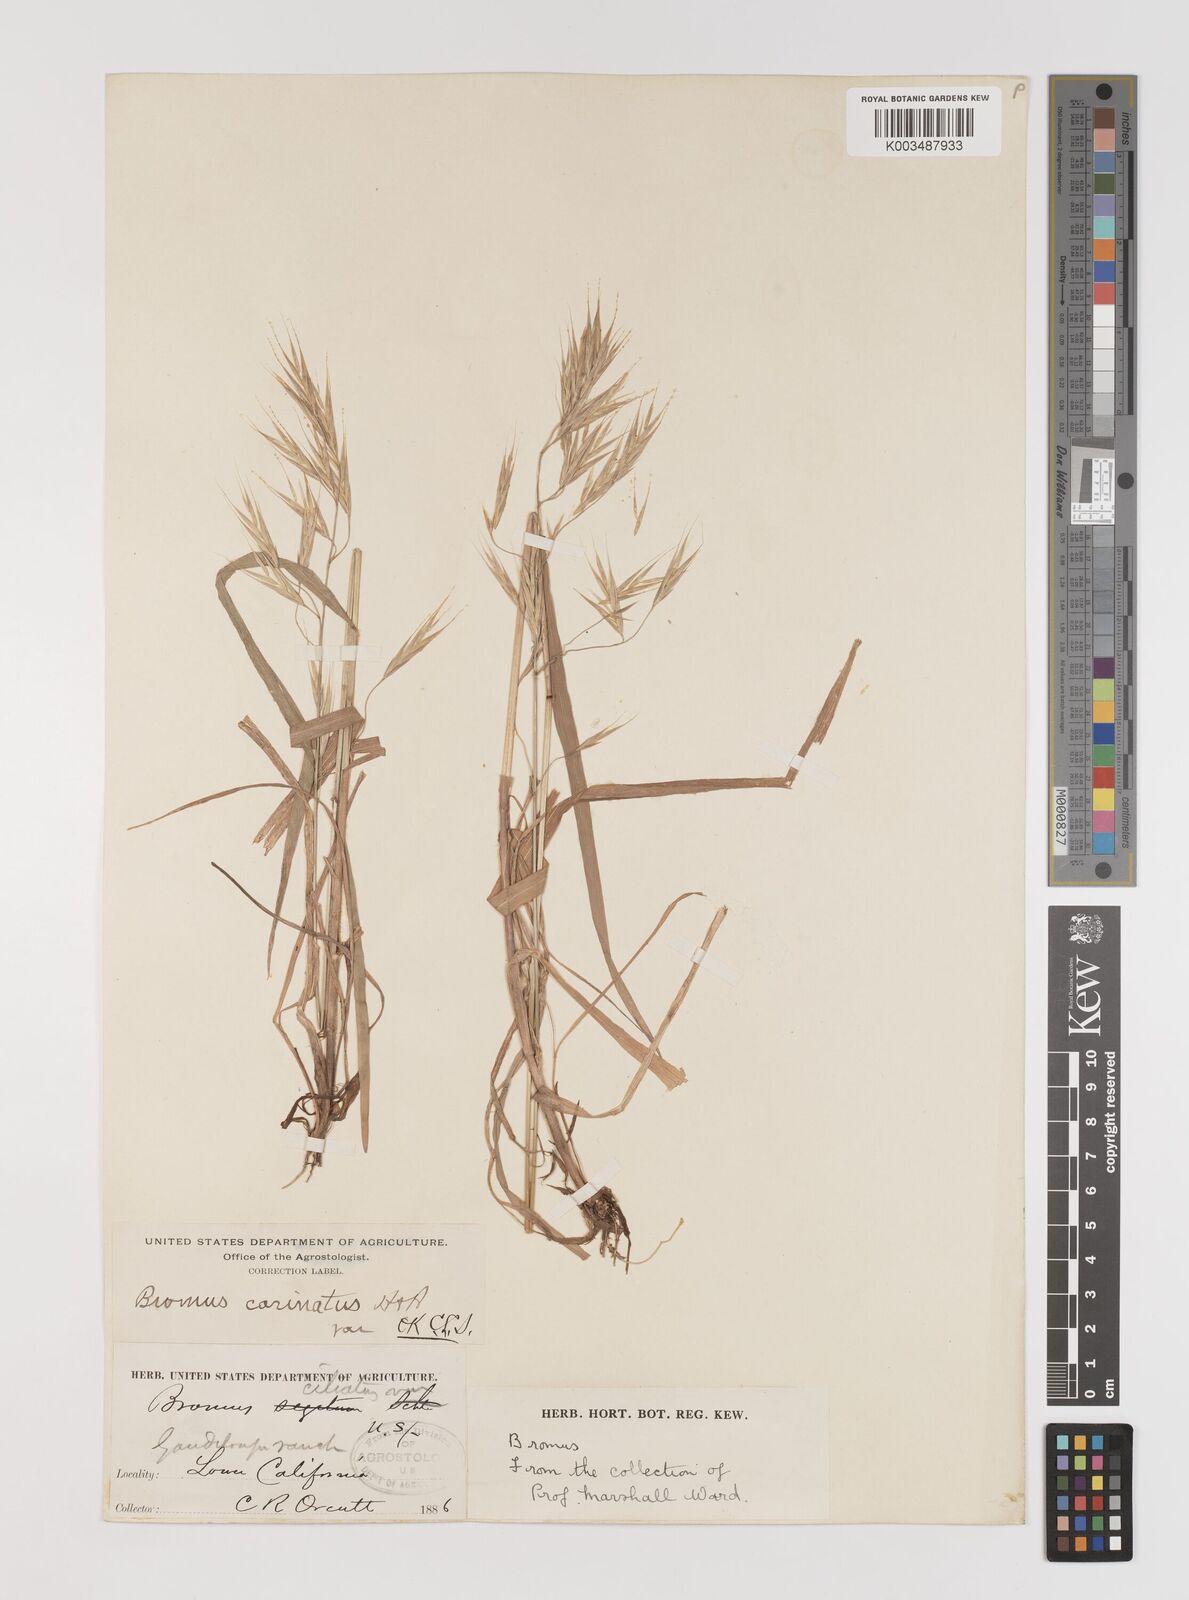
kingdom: Plantae
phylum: Tracheophyta
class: Liliopsida
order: Poales
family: Poaceae
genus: Bromus
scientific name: Bromus carinatus
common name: Mountain brome
